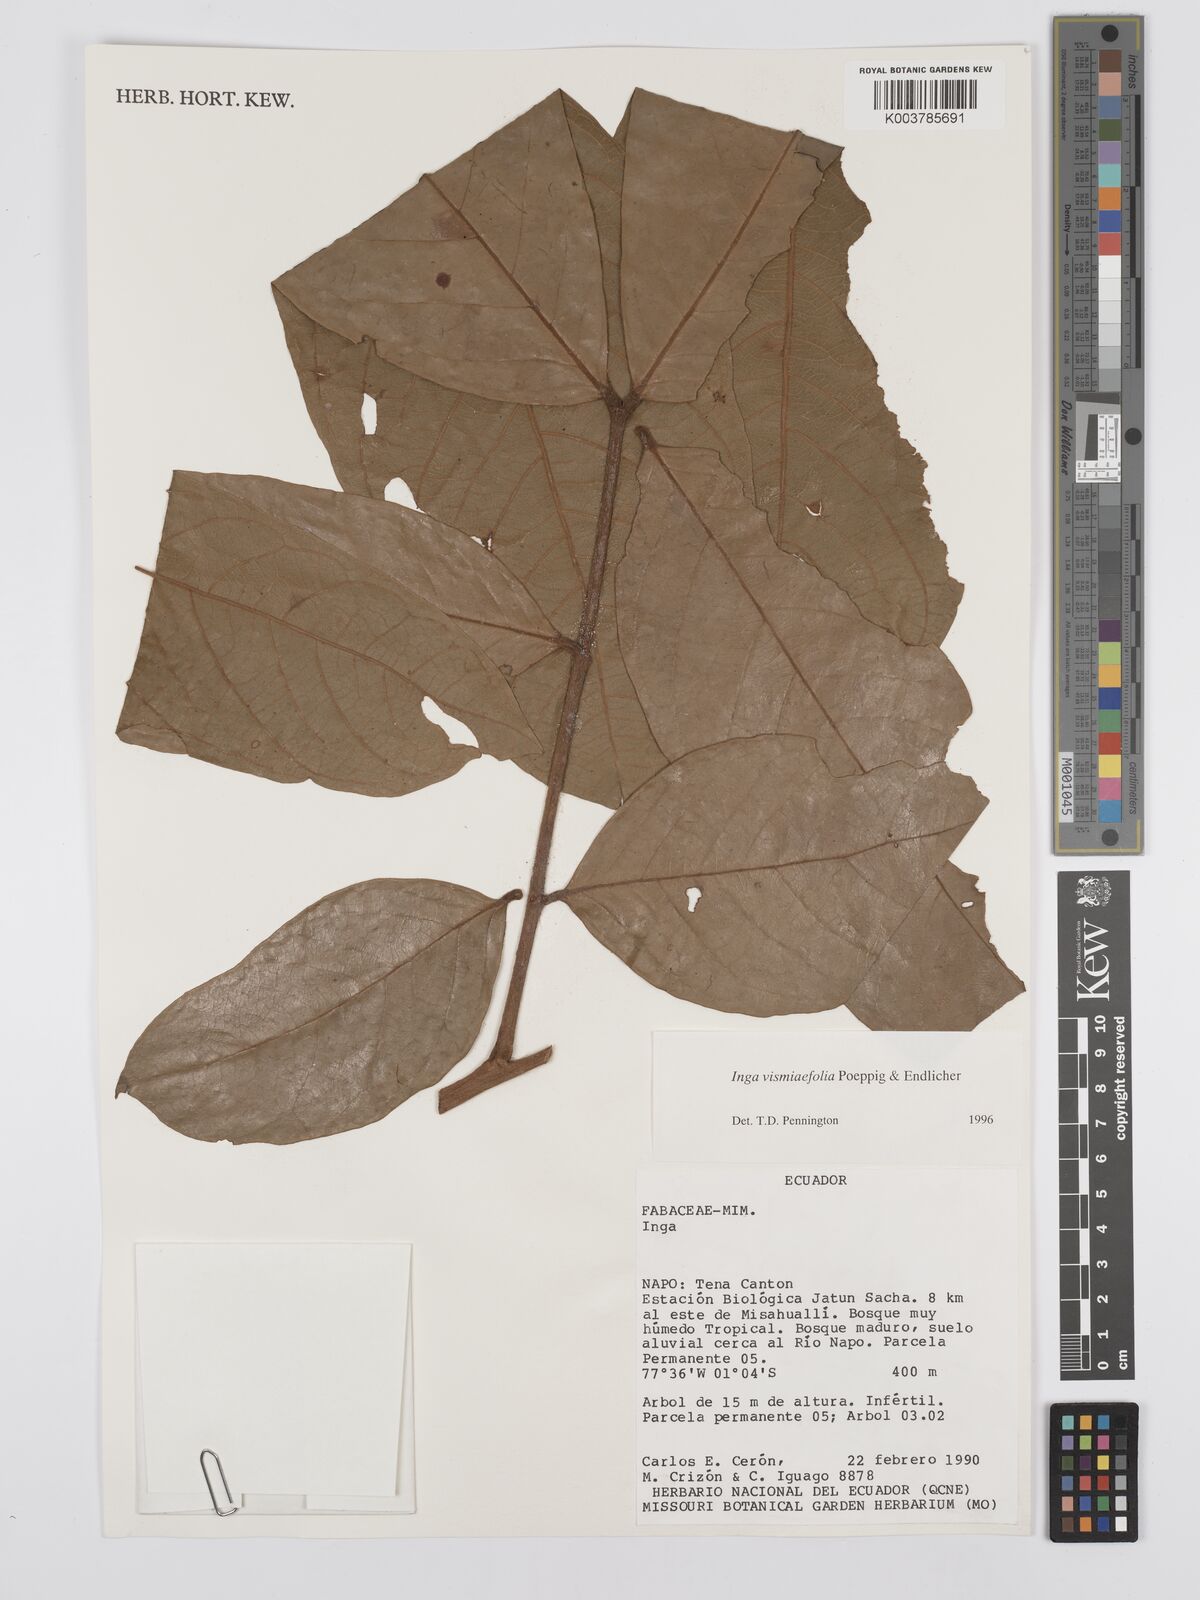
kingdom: Plantae
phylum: Tracheophyta
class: Magnoliopsida
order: Fabales
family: Fabaceae
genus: Inga
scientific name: Inga vismiifolia
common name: Howler monkey inga
